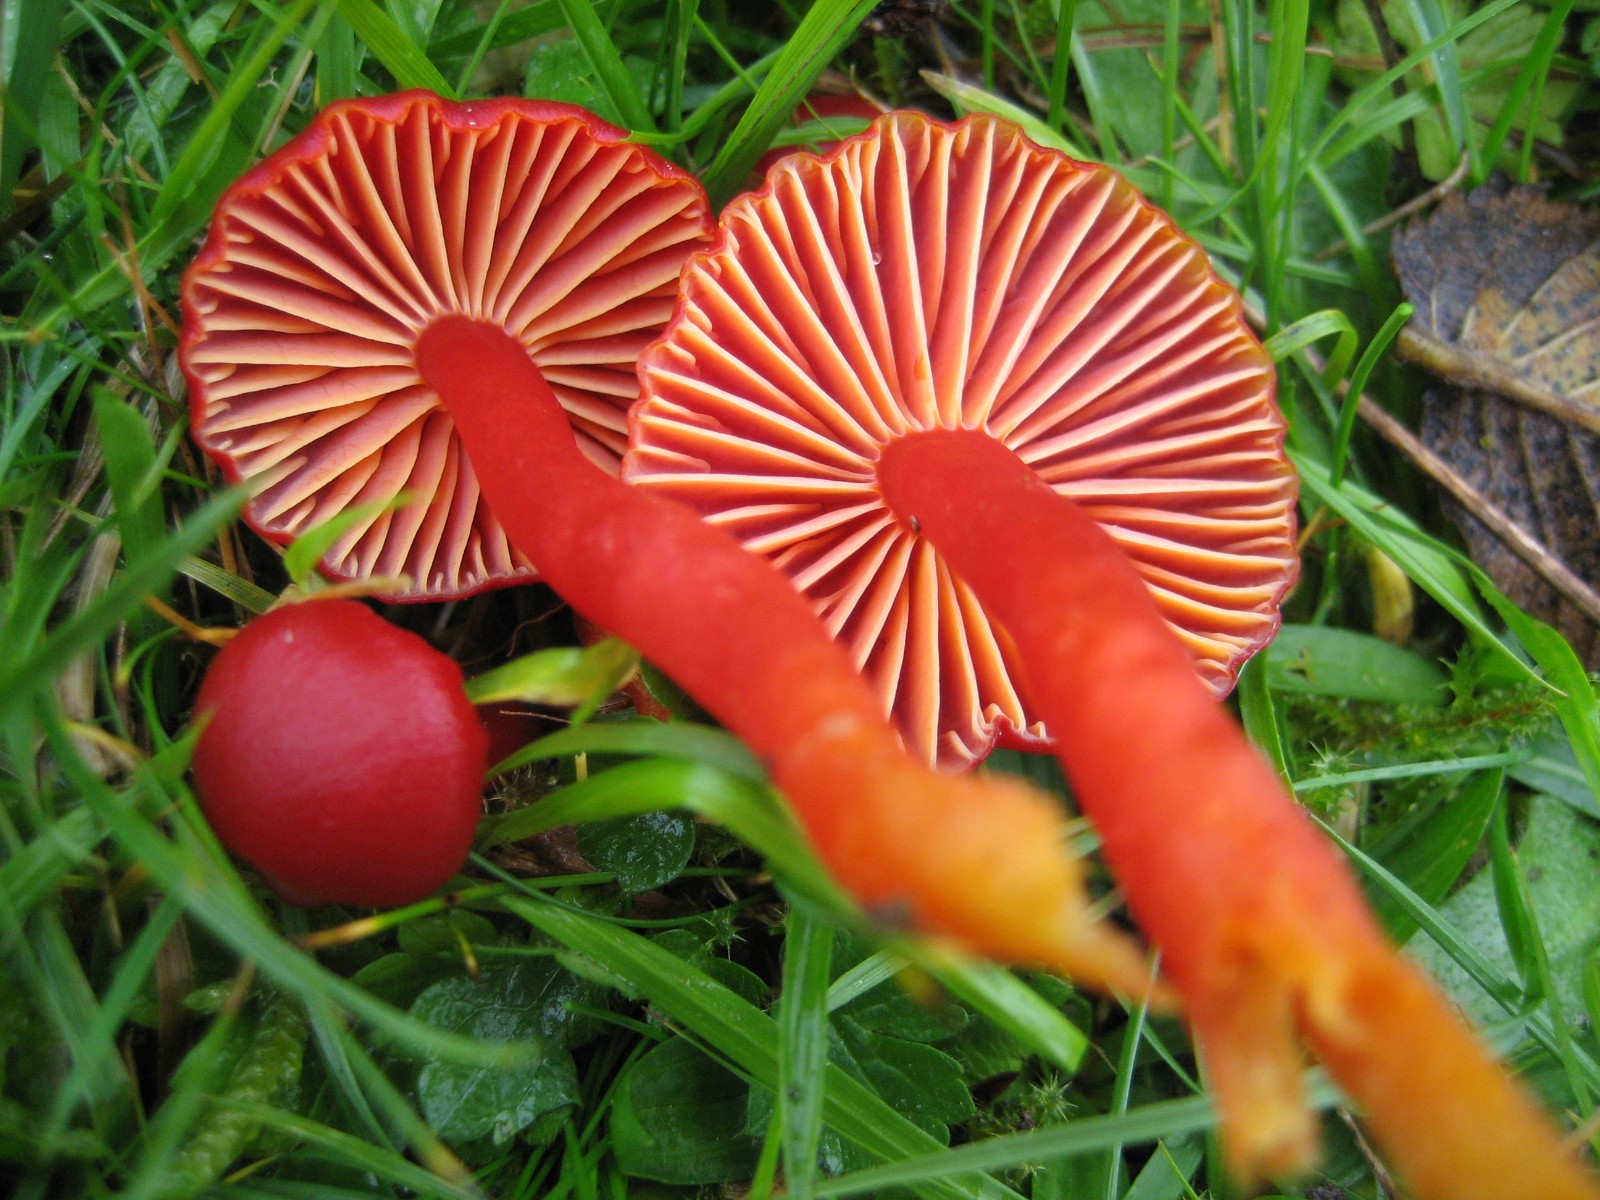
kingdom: Fungi
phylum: Basidiomycota
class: Agaricomycetes
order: Agaricales
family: Hygrophoraceae
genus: Hygrocybe
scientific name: Hygrocybe coccinea
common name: cinnober-vokshat
